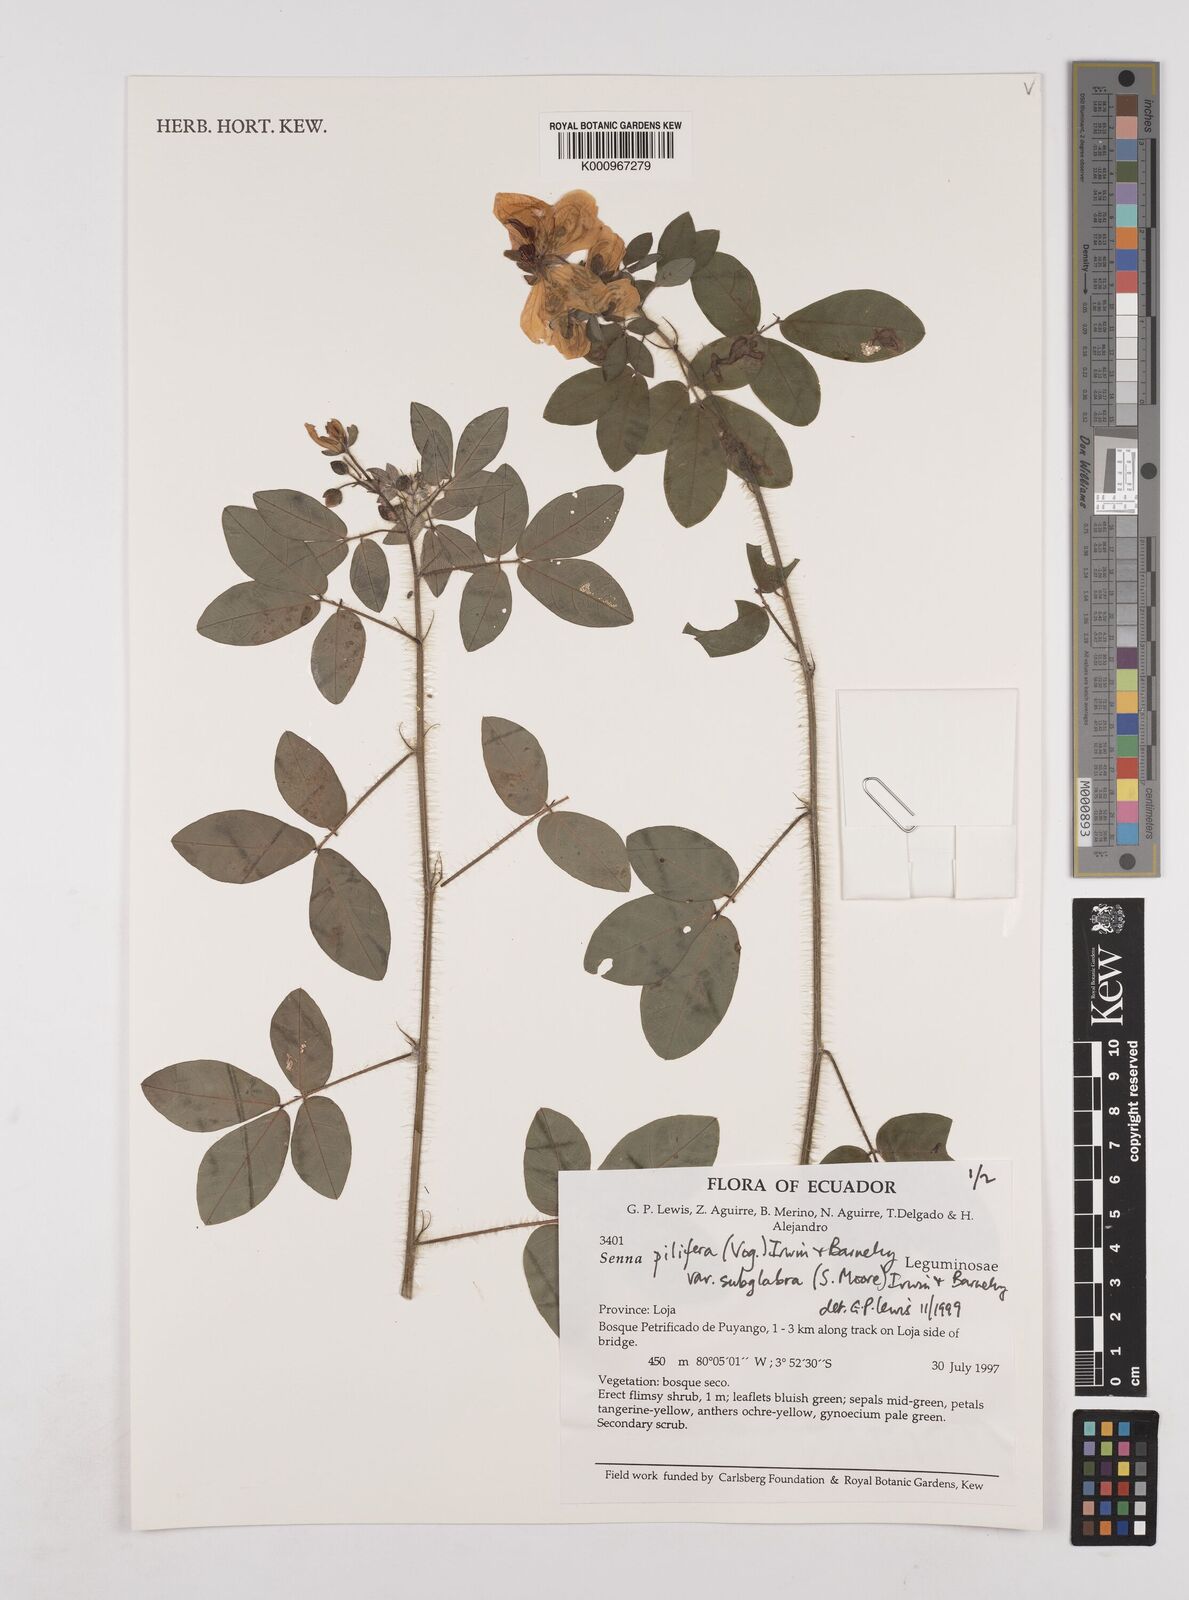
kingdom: Plantae
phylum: Tracheophyta
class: Magnoliopsida
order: Fabales
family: Fabaceae
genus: Senna
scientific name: Senna pilifera
